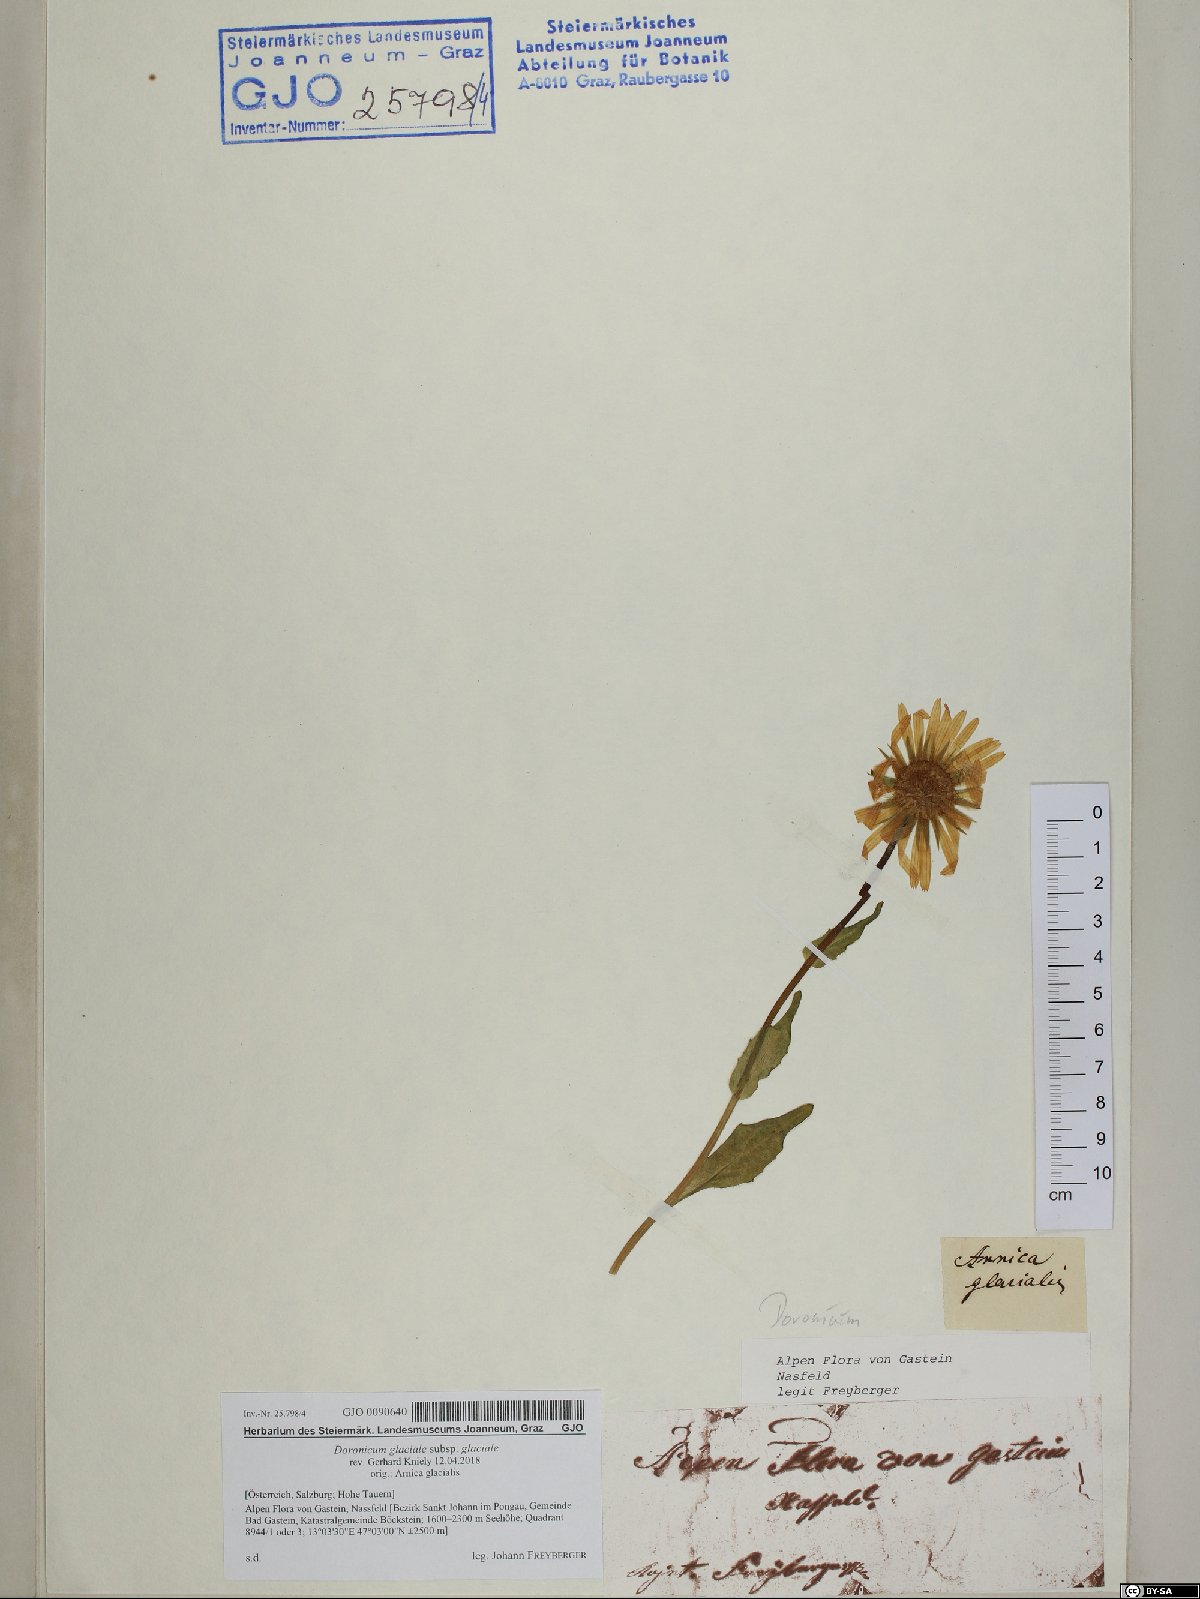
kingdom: Plantae
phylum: Tracheophyta
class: Magnoliopsida
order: Asterales
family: Asteraceae
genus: Doronicum
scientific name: Doronicum glaciale
